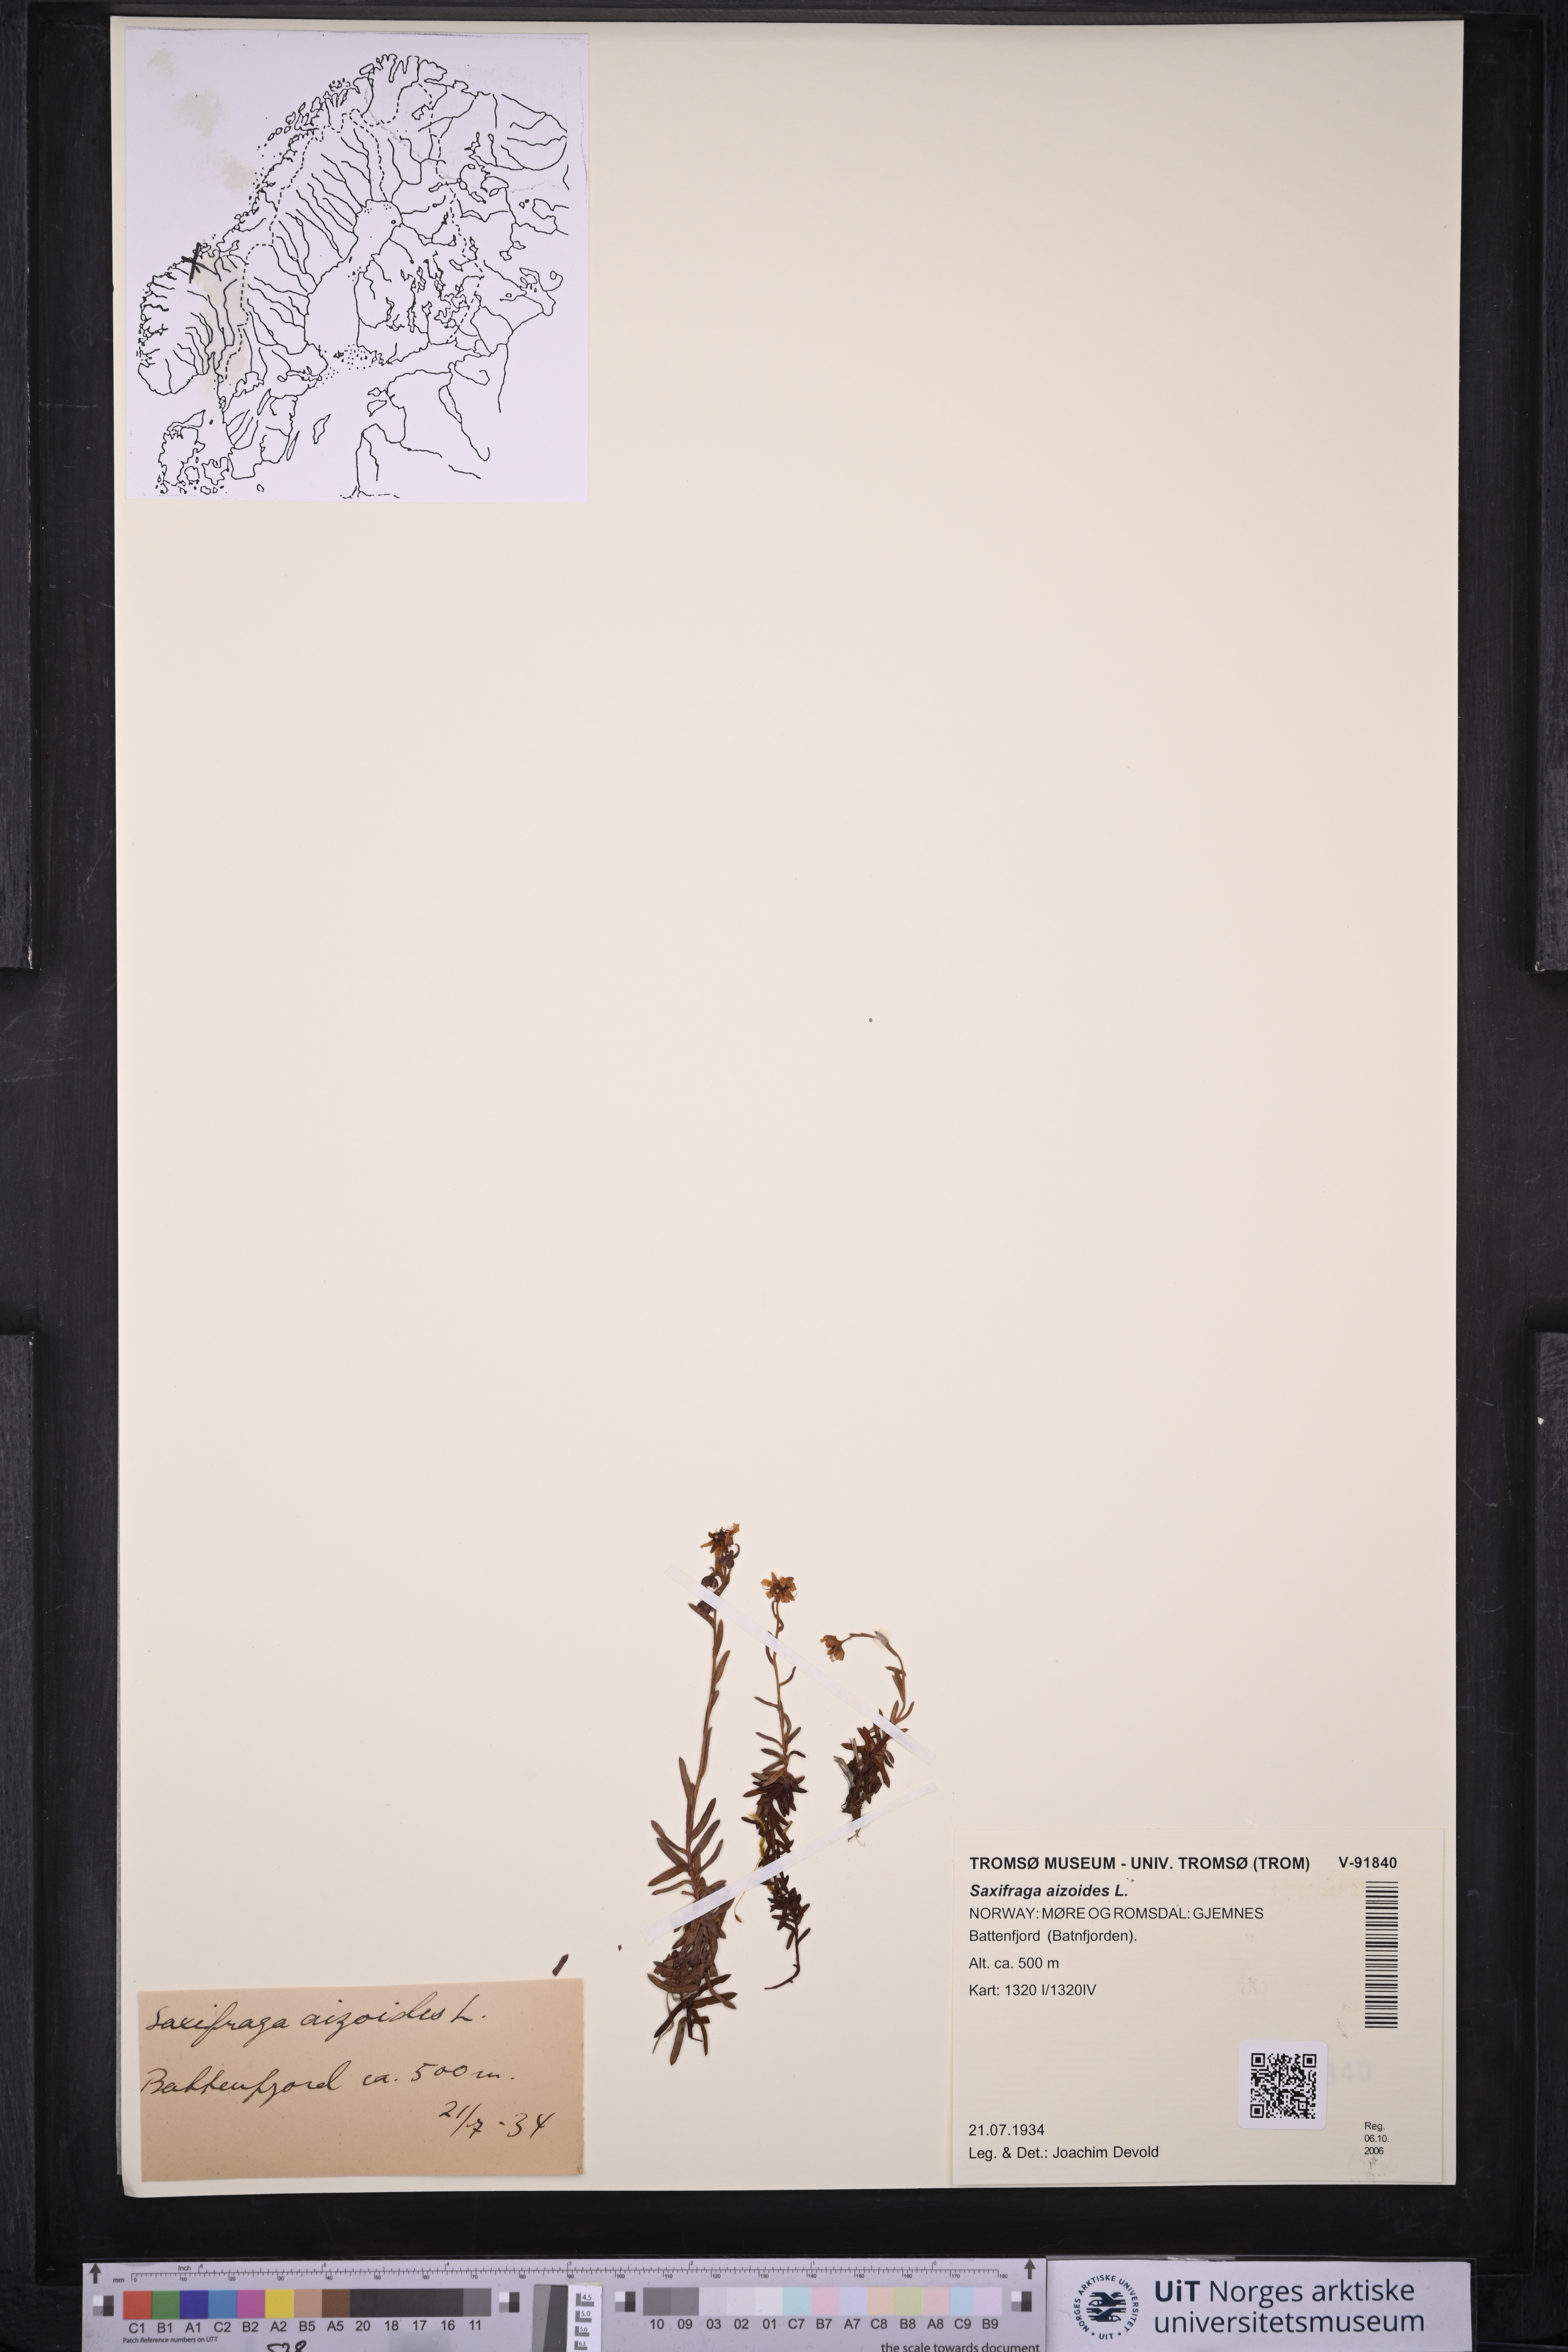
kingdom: Plantae
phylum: Tracheophyta
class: Magnoliopsida
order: Saxifragales
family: Saxifragaceae
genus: Saxifraga
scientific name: Saxifraga aizoides
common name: Yellow mountain saxifrage
